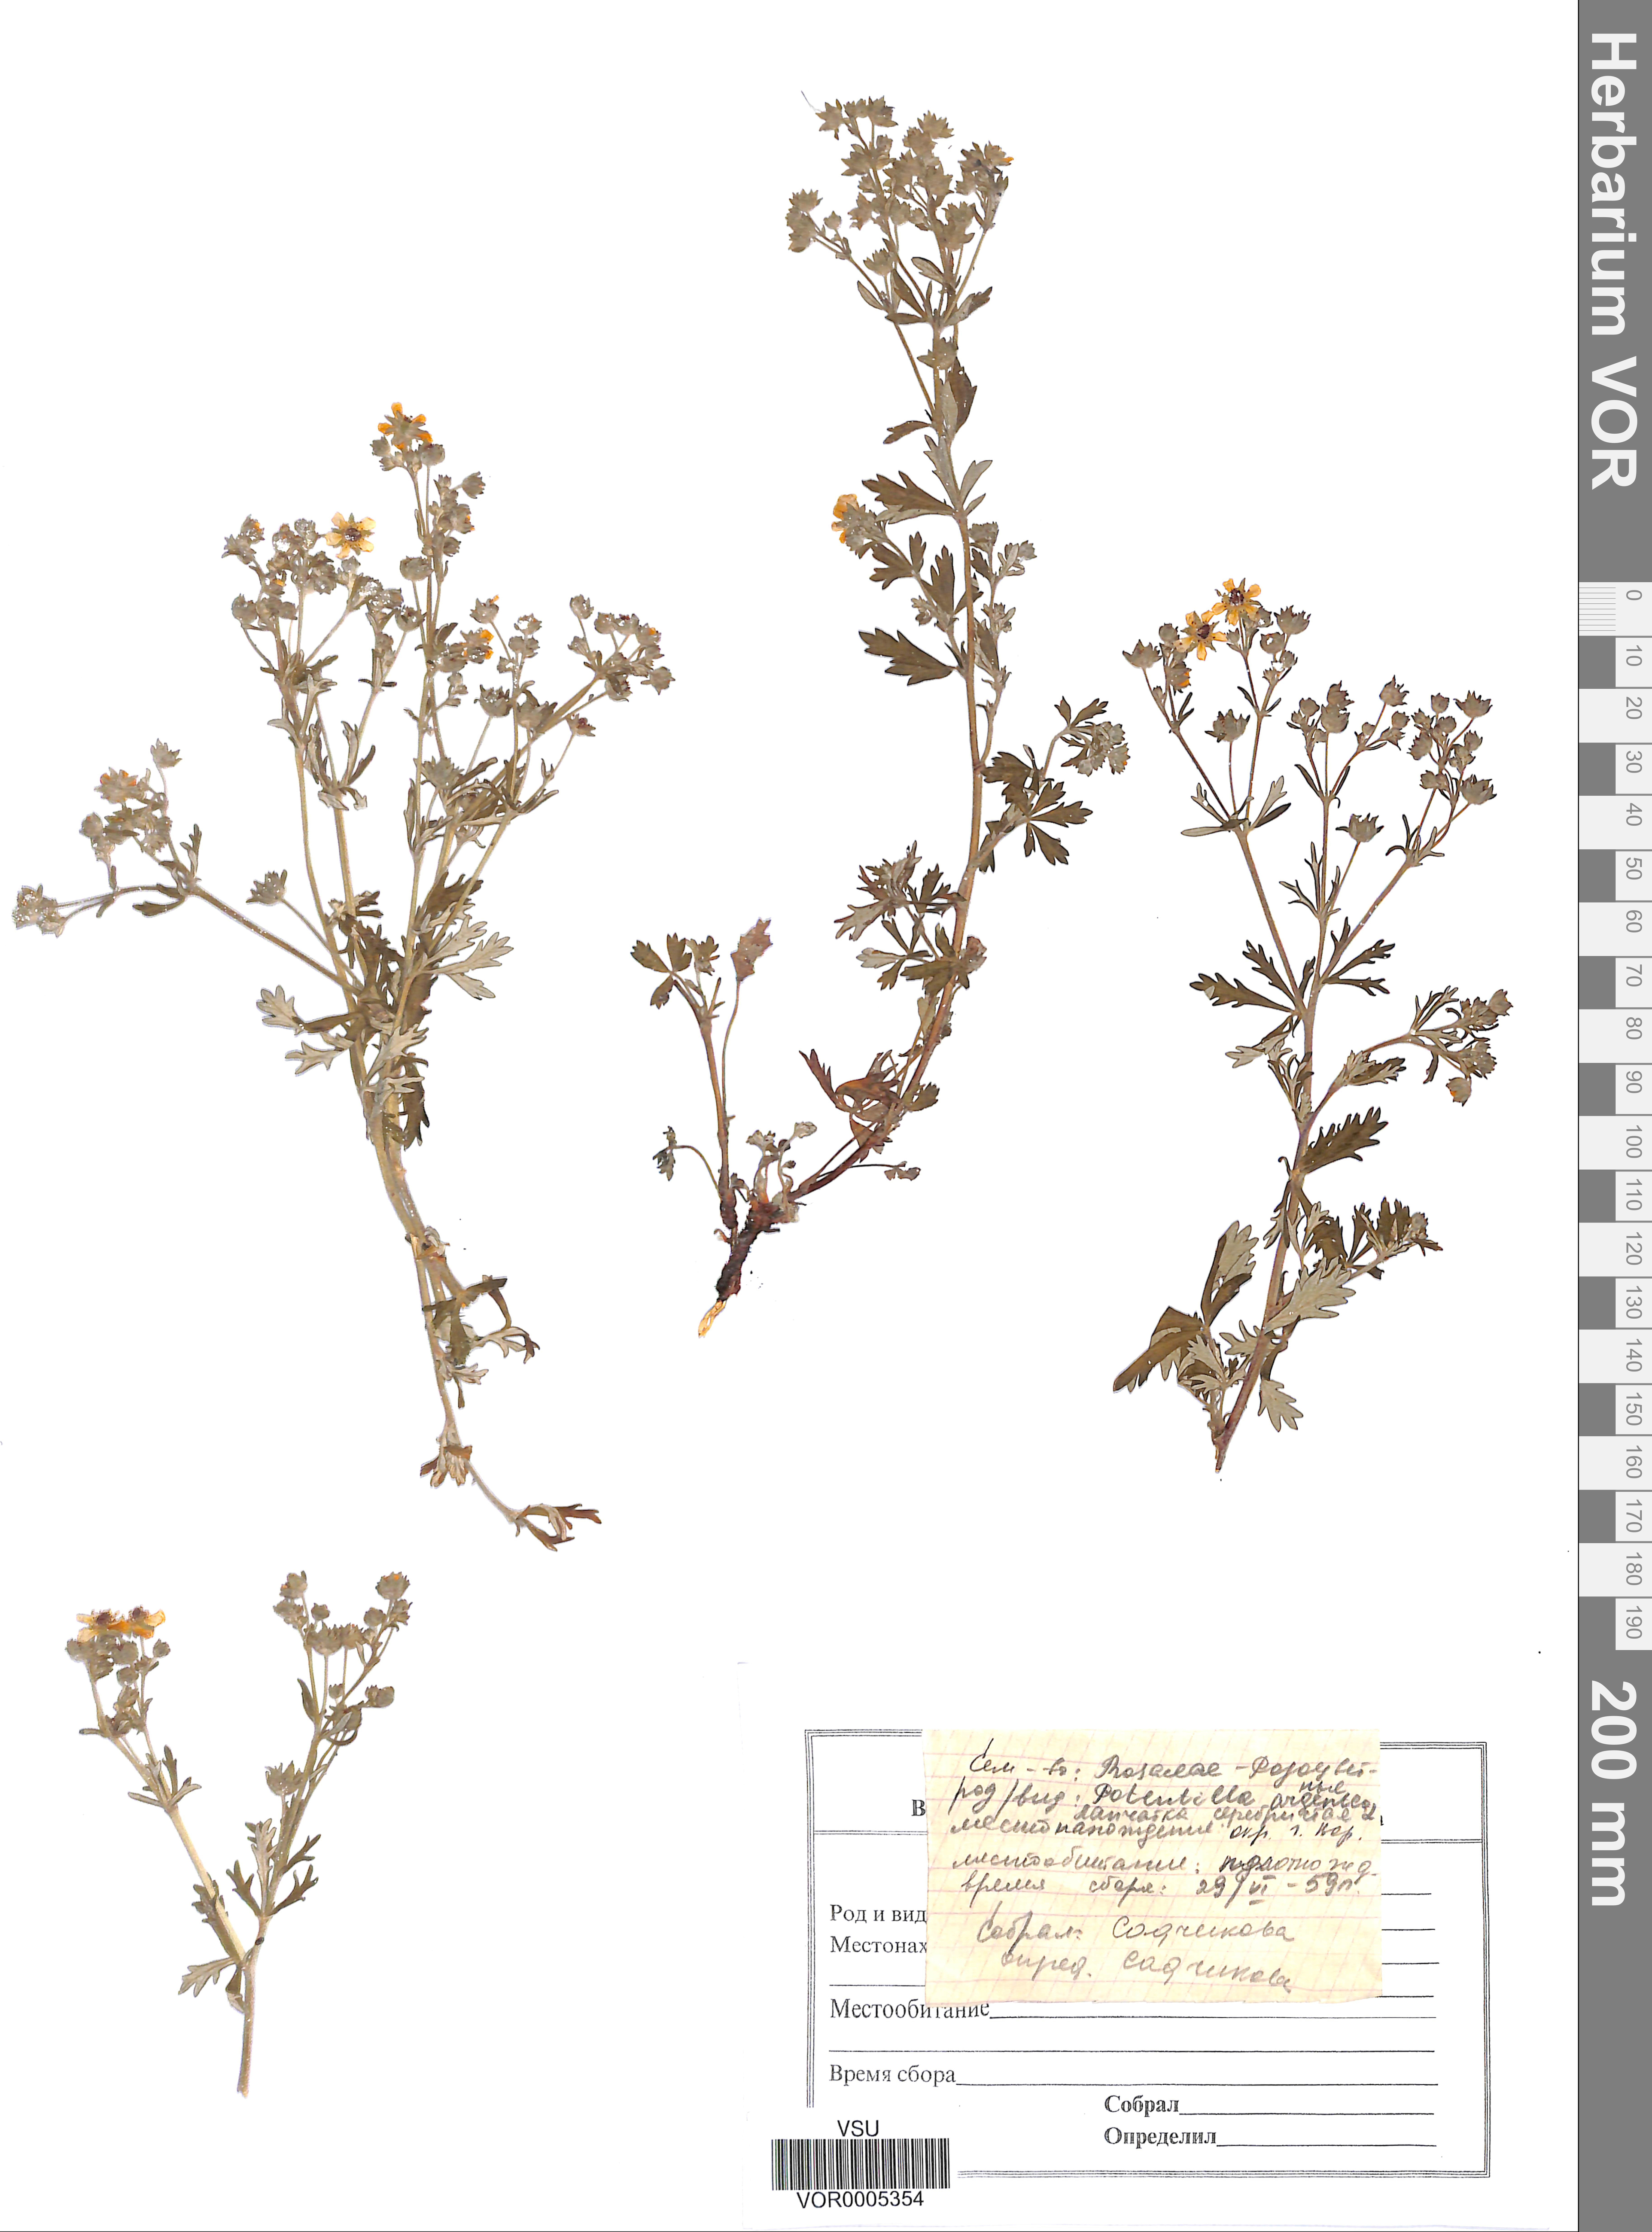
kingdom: Plantae
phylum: Tracheophyta
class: Magnoliopsida
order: Rosales
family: Rosaceae
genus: Potentilla
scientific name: Potentilla argentea
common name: Hoary cinquefoil
